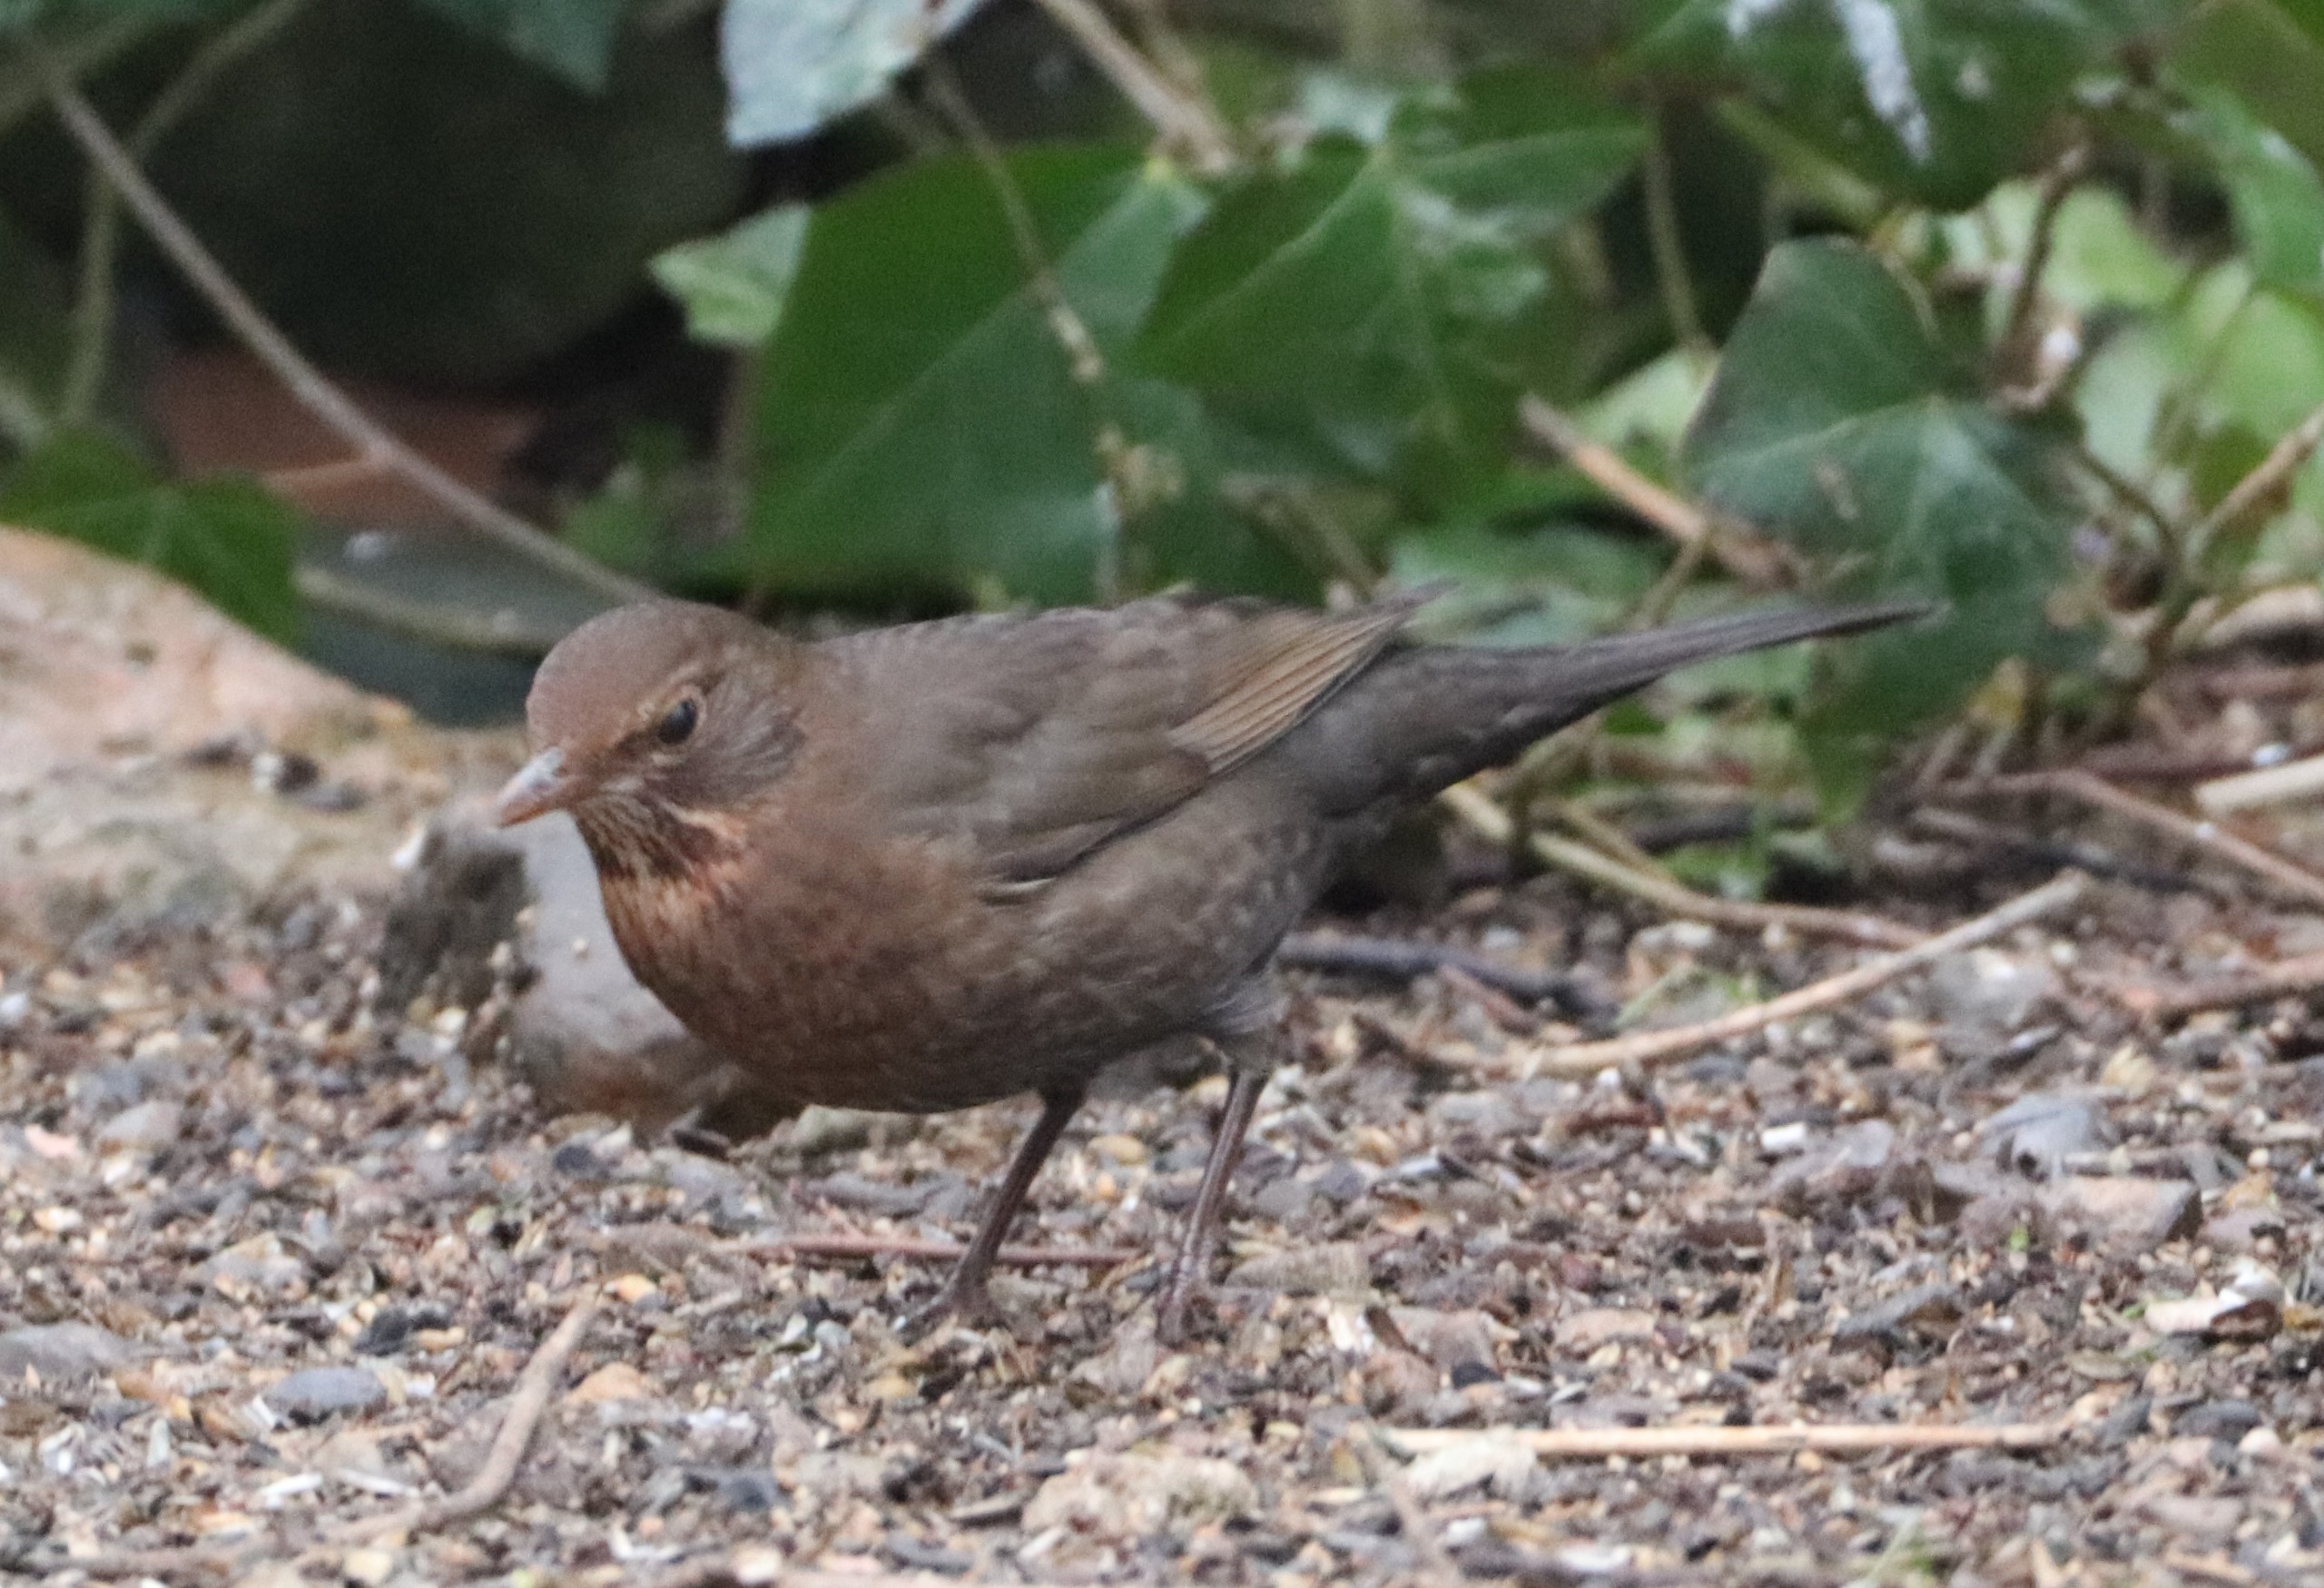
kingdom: Animalia
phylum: Chordata
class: Aves
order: Passeriformes
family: Turdidae
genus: Turdus
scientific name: Turdus merula
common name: Solsort
